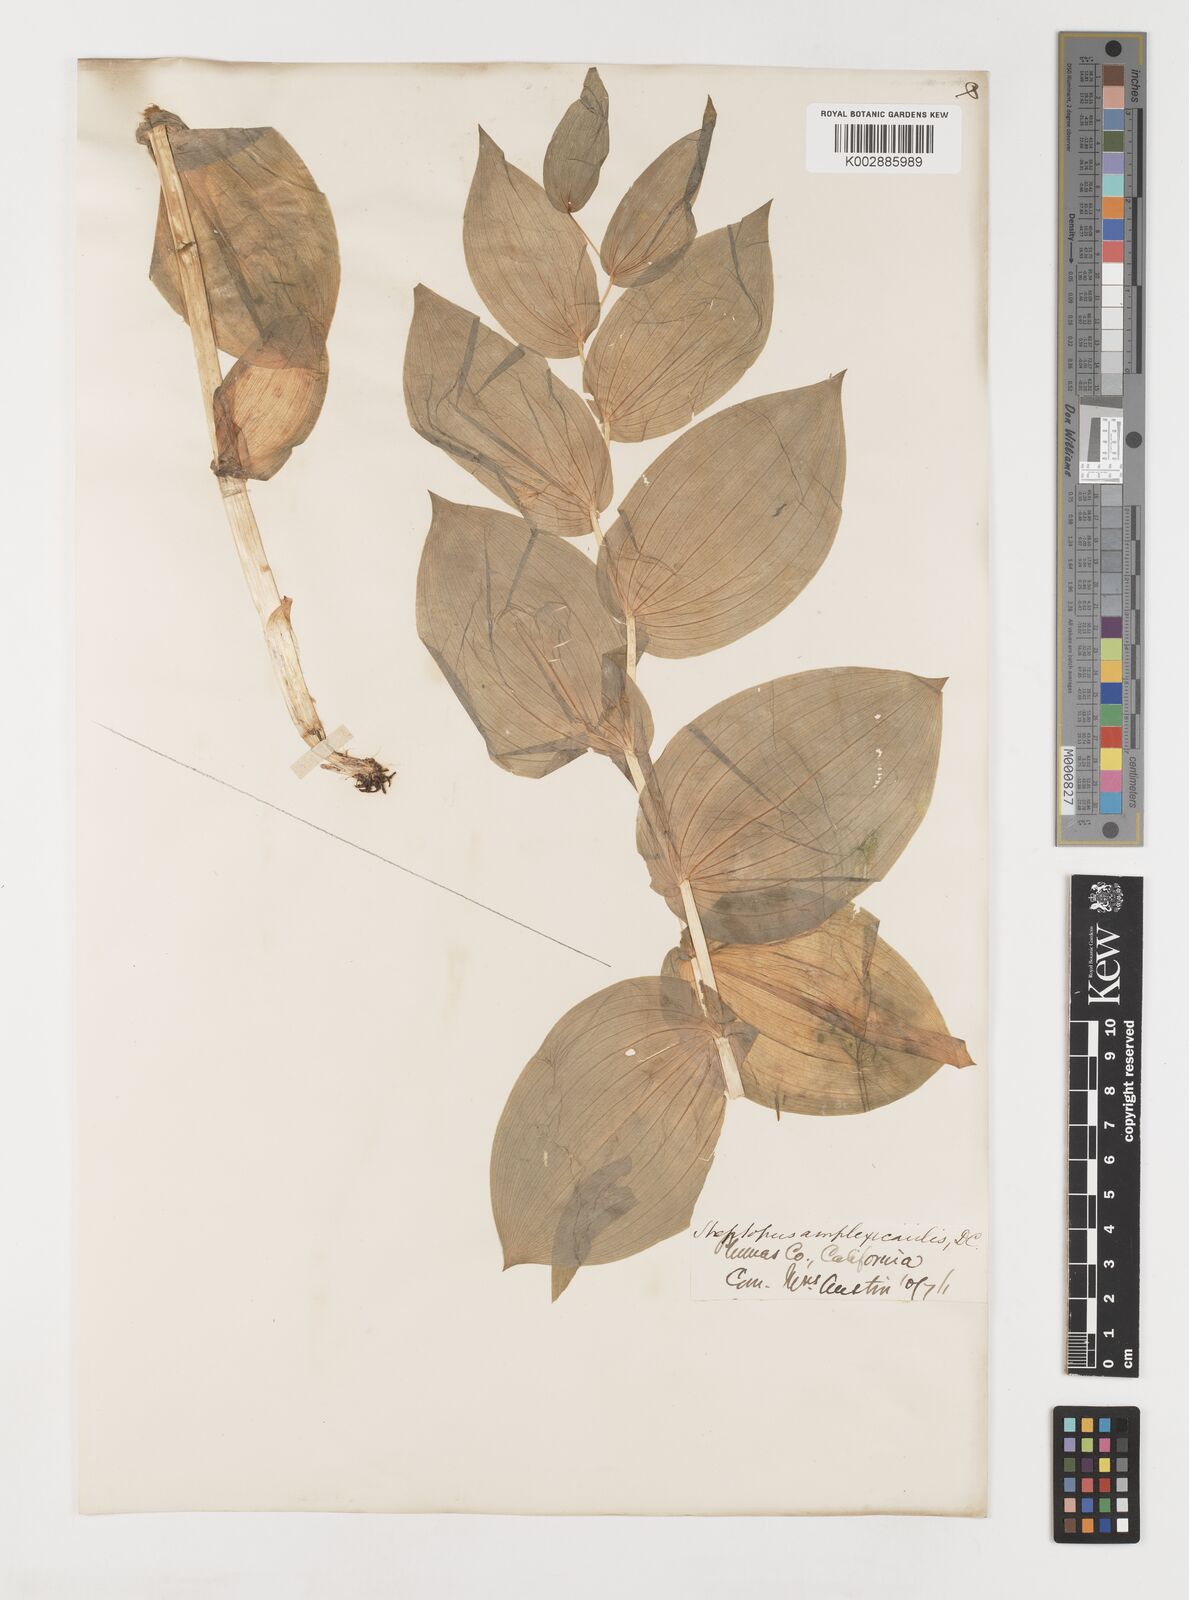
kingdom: Plantae
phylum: Tracheophyta
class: Liliopsida
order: Liliales
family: Liliaceae
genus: Streptopus
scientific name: Streptopus amplexifolius
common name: Clasp twisted stalk
